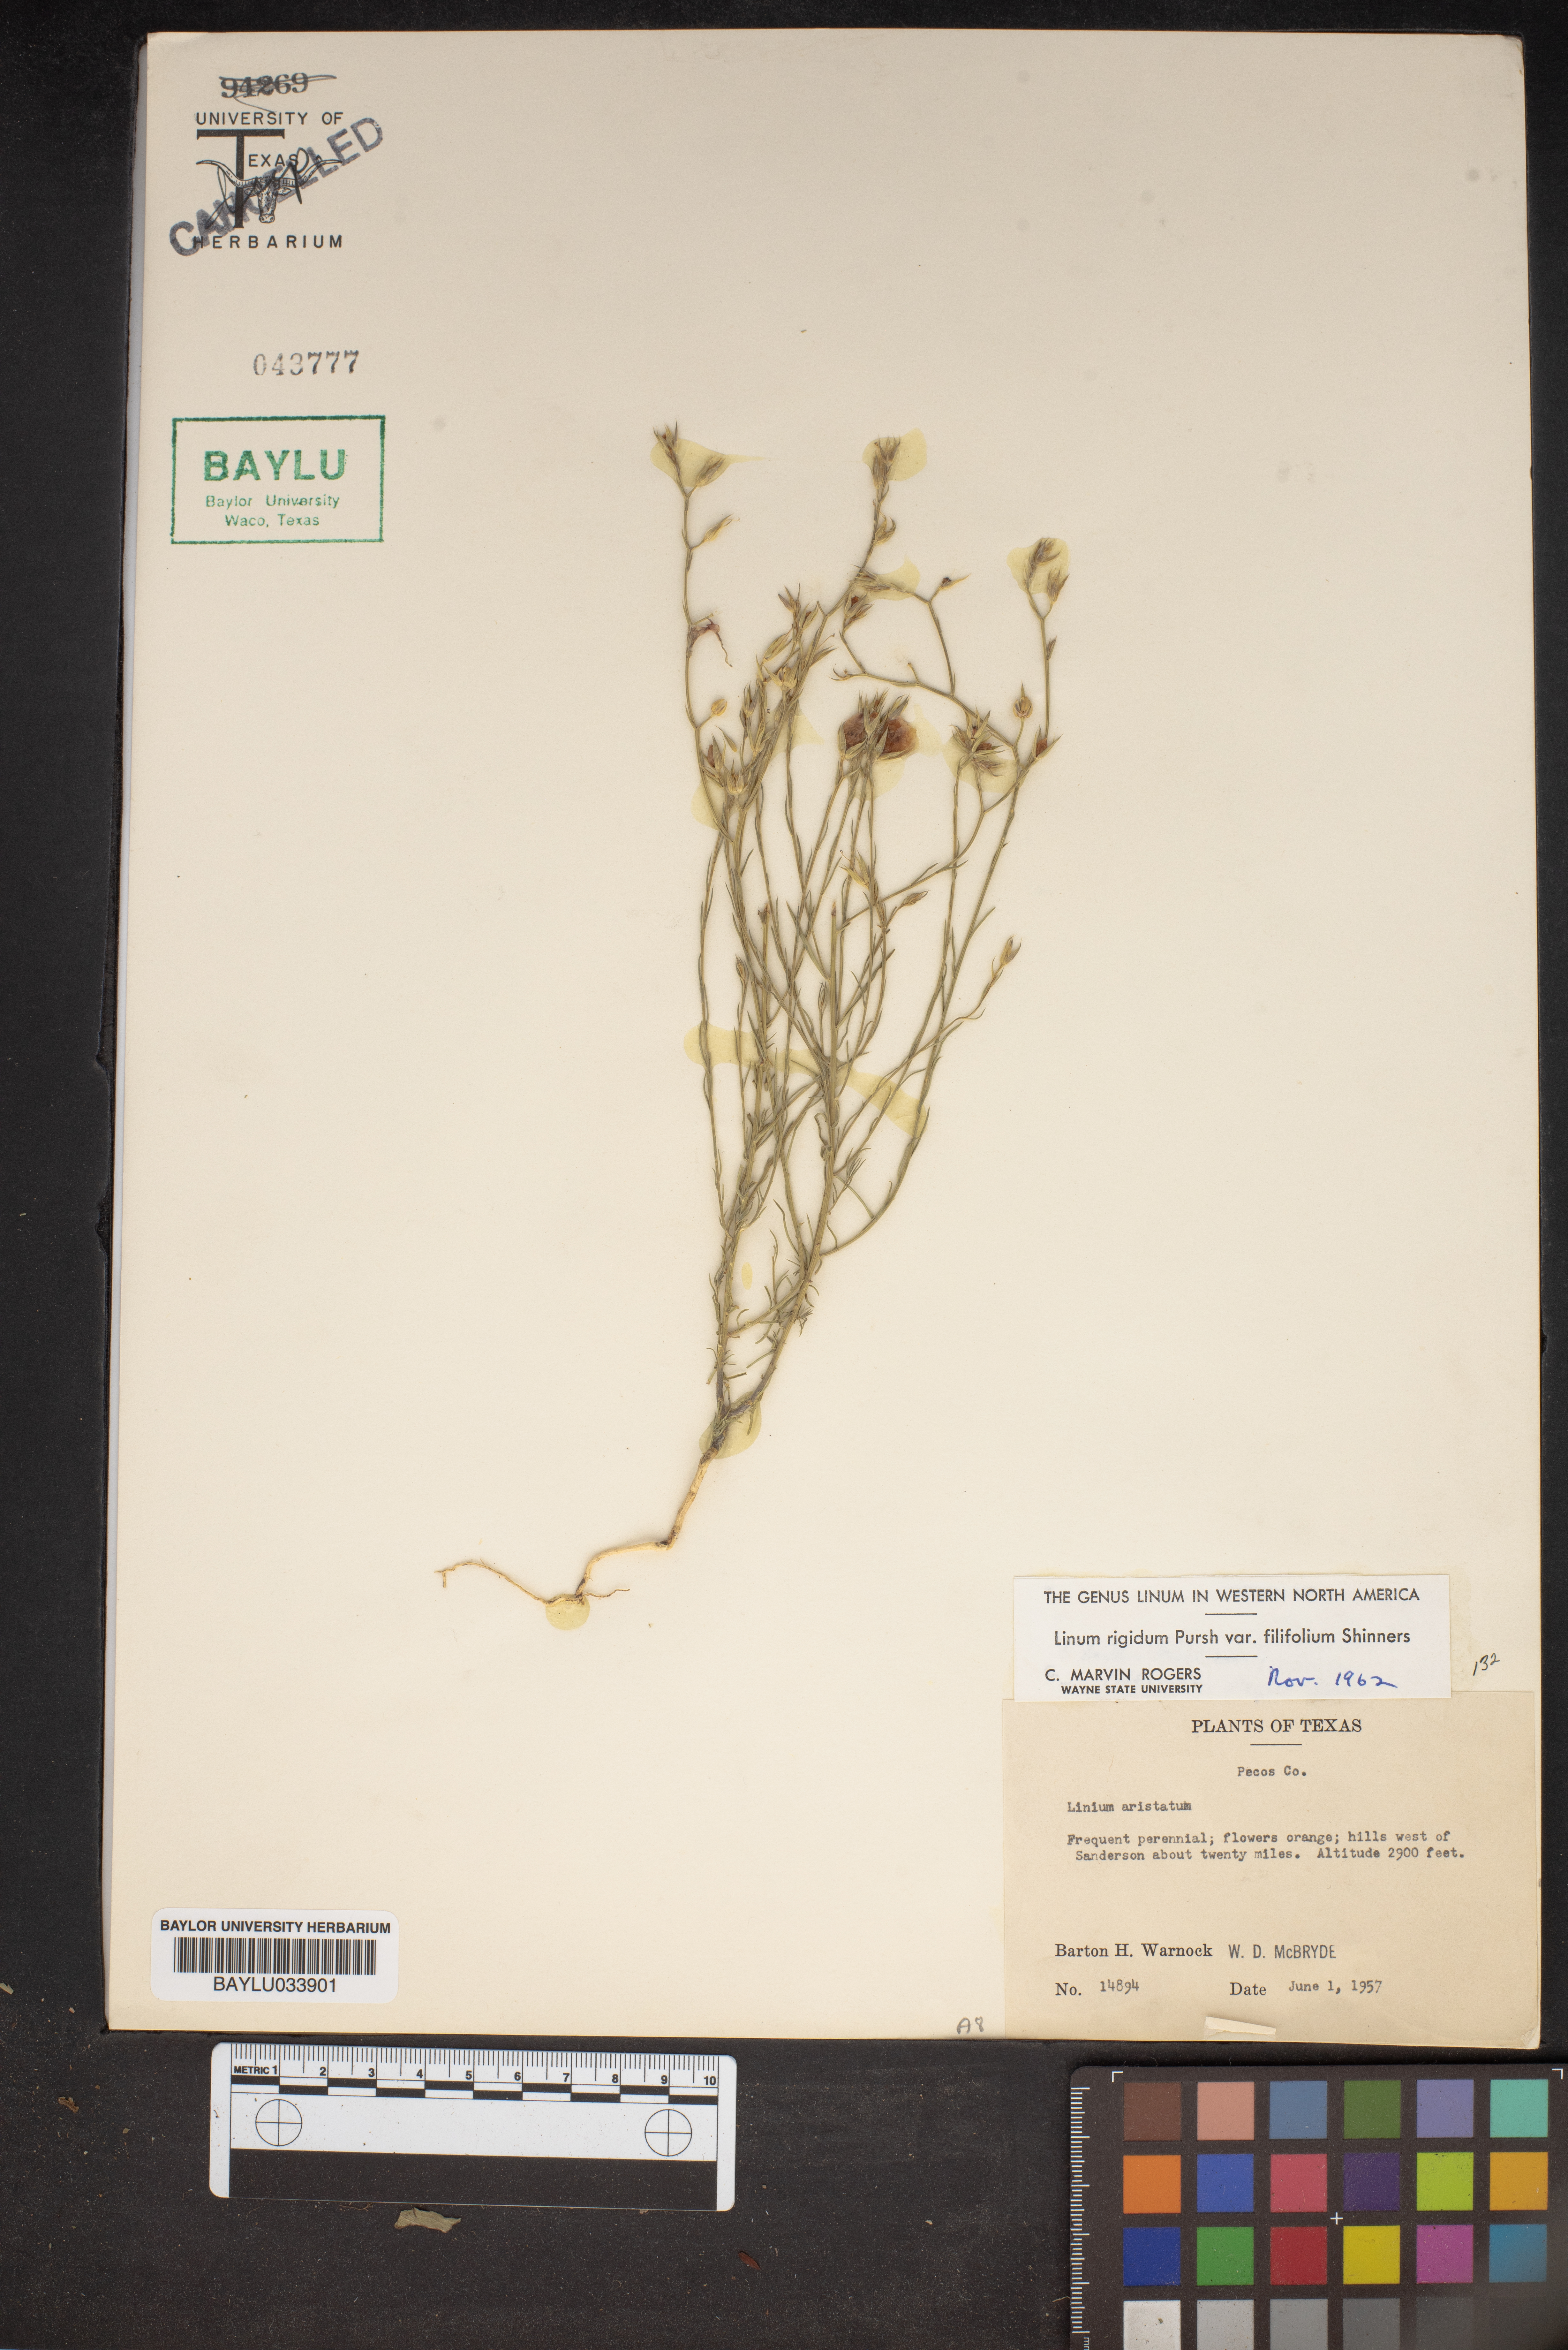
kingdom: Plantae
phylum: Tracheophyta
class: Magnoliopsida
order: Malpighiales
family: Linaceae
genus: Linum
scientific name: Linum berlandieri
